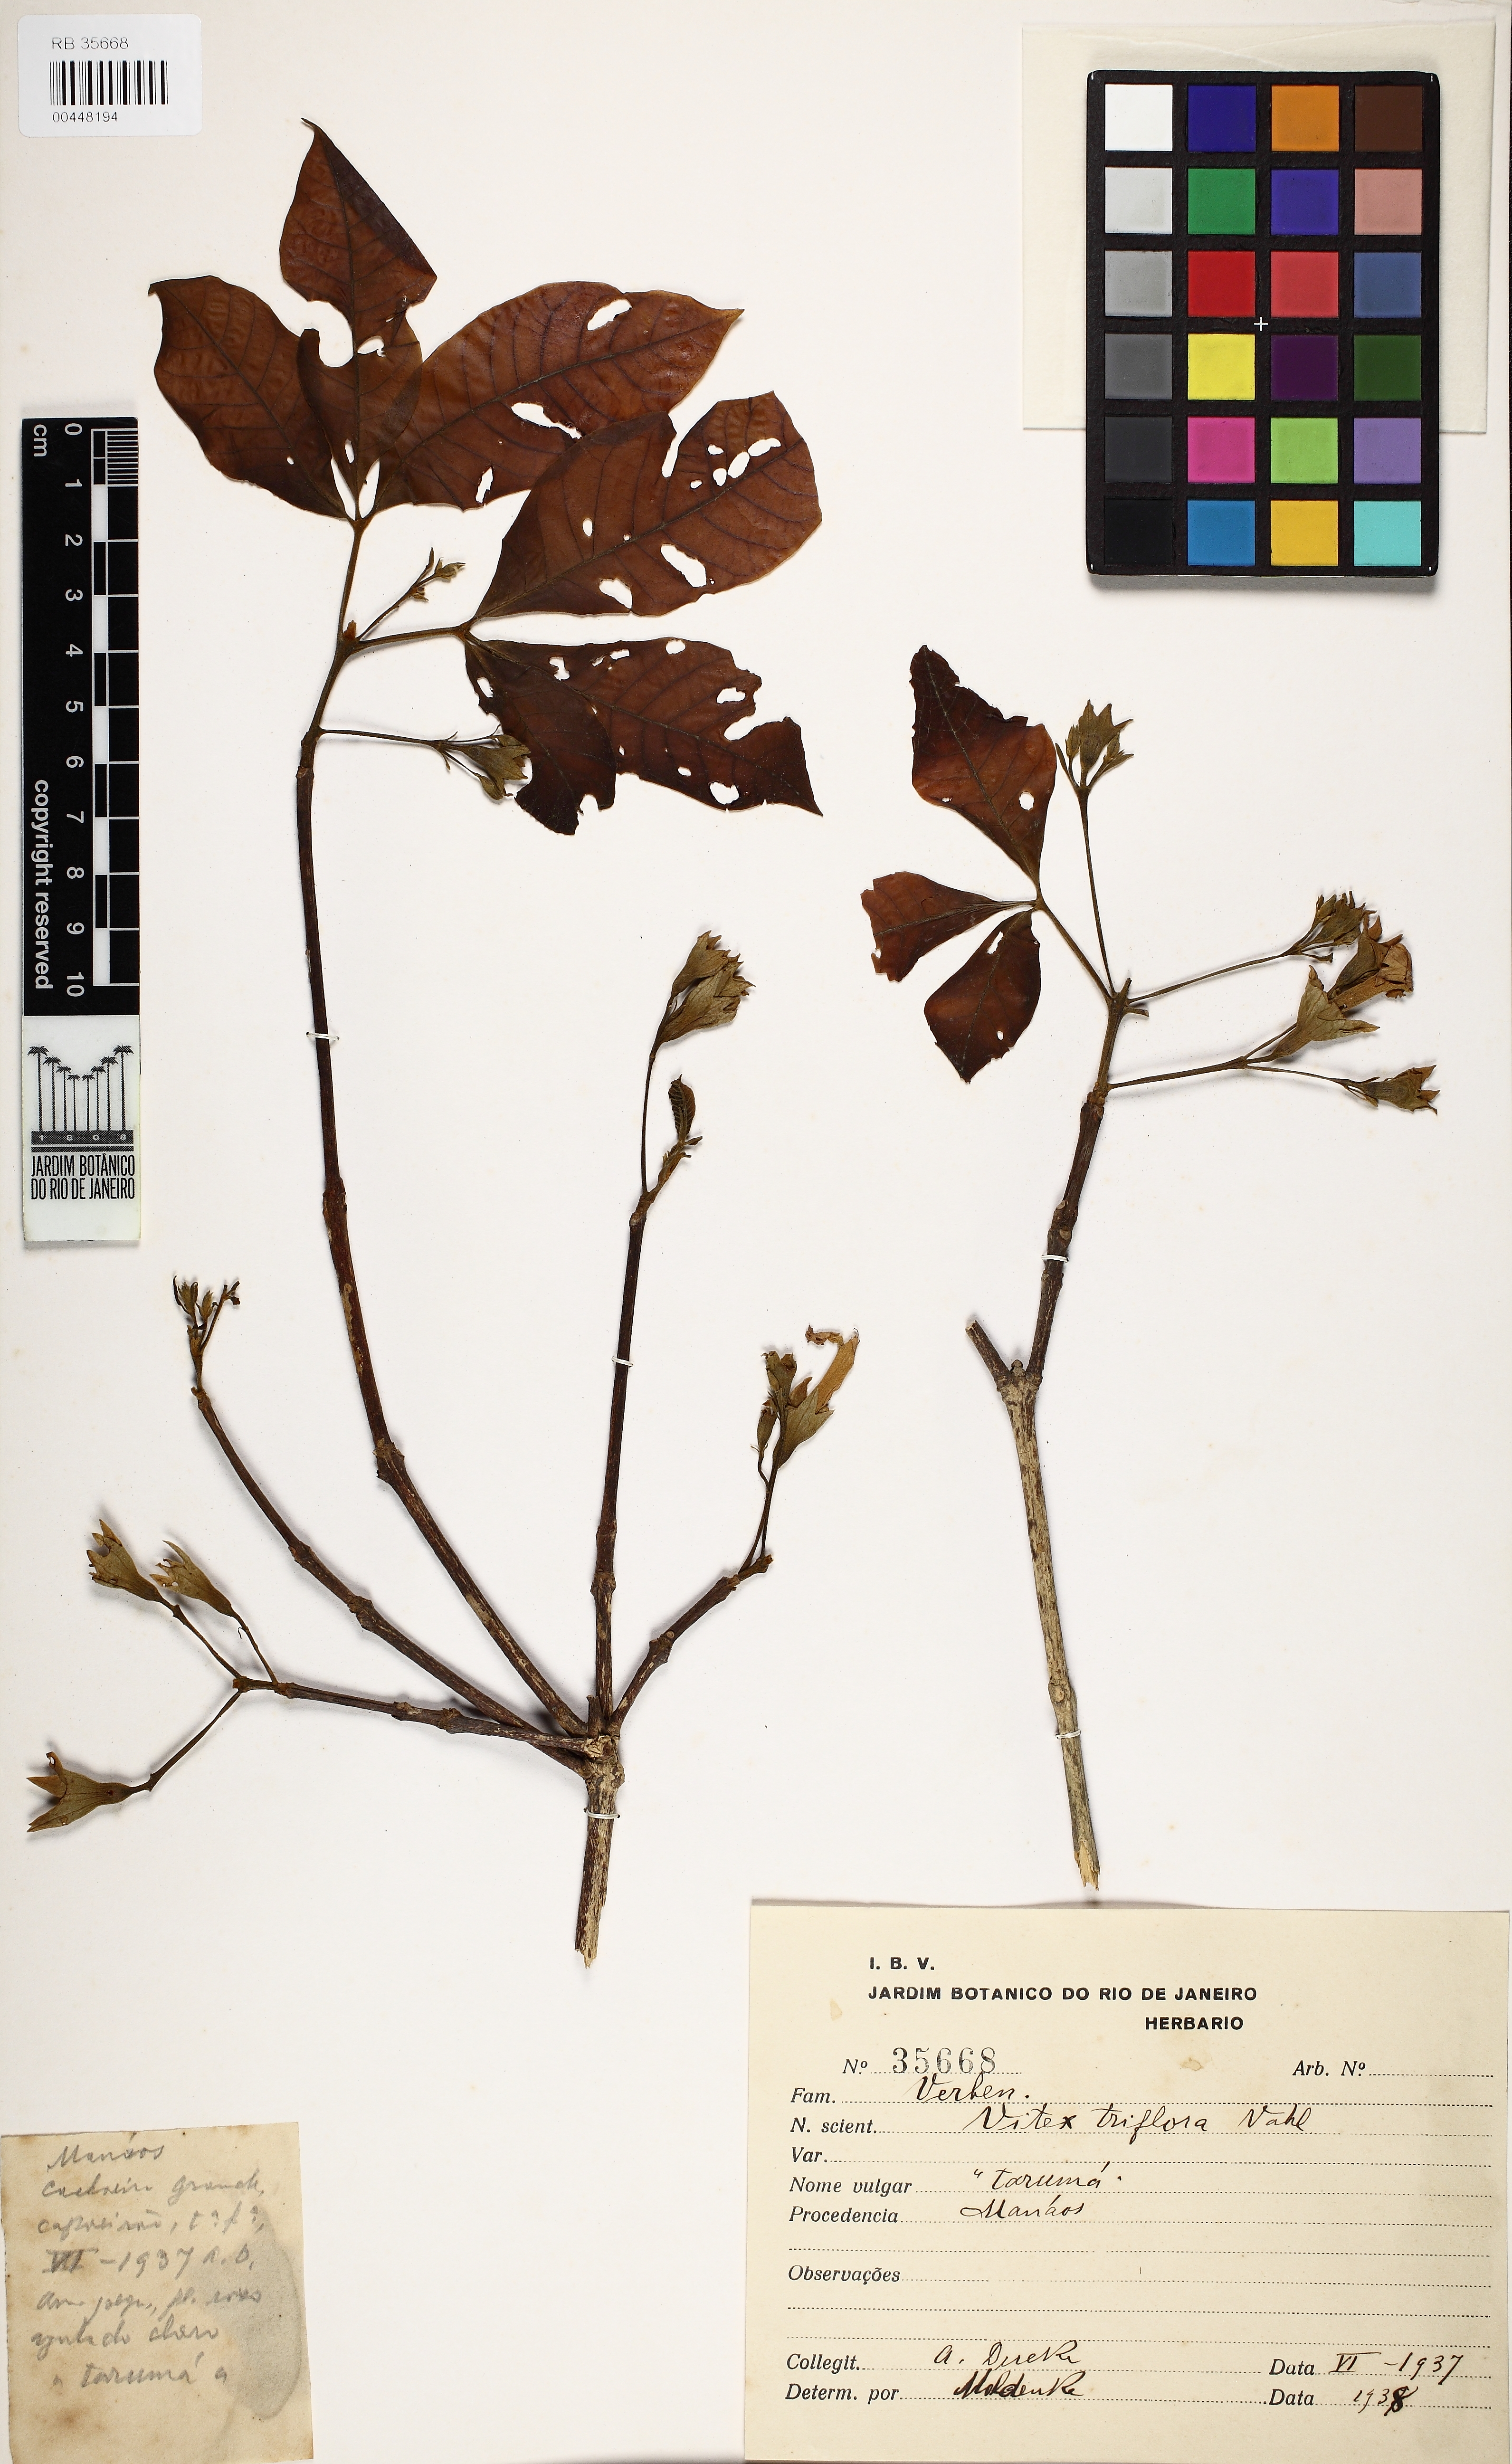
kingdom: Plantae
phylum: Tracheophyta
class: Magnoliopsida
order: Lamiales
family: Lamiaceae
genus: Vitex
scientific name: Vitex triflora
